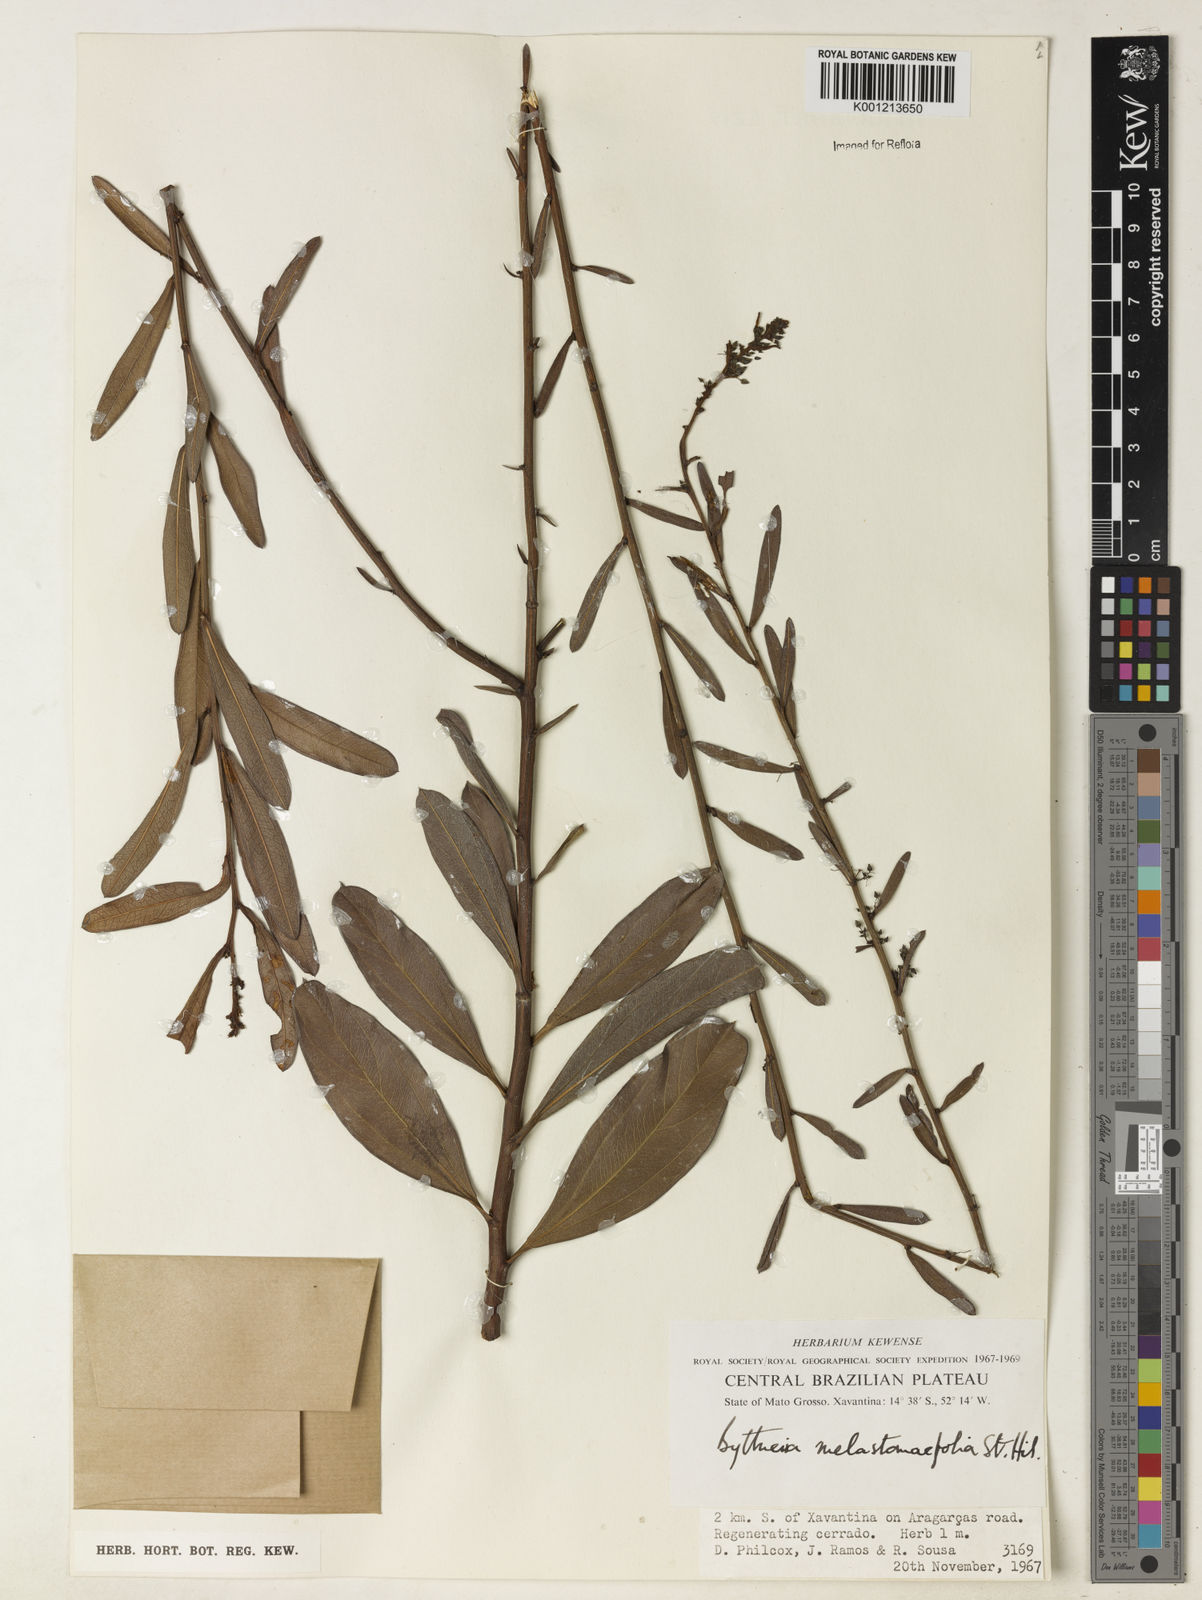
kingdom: Plantae
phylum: Tracheophyta
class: Magnoliopsida
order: Malvales
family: Malvaceae
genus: Byttneria
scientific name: Byttneria melastomifolia
